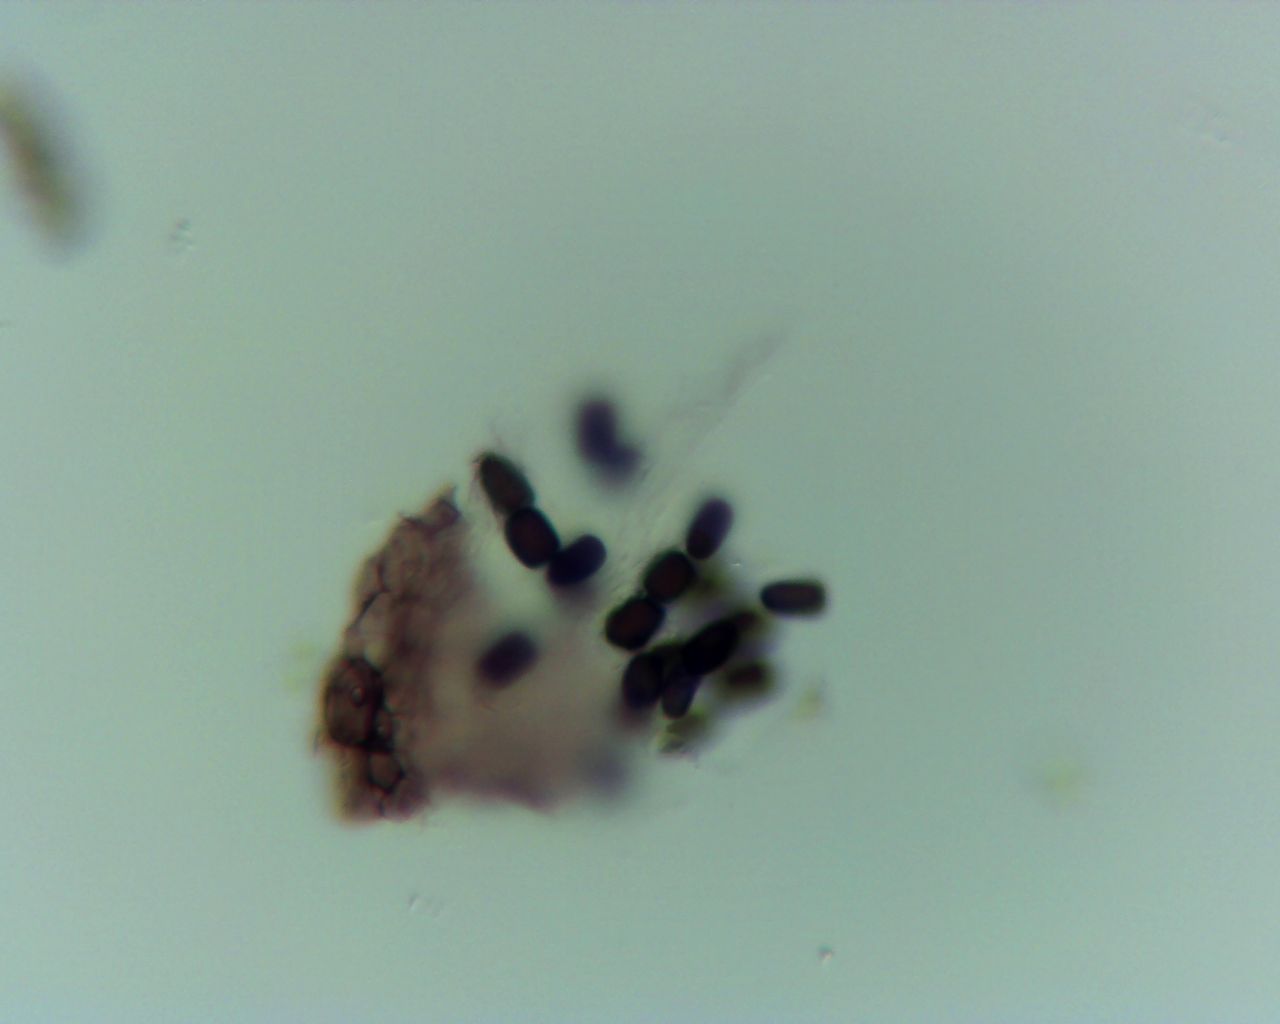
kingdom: Fungi
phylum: Ascomycota
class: Dothideomycetes
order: Pleosporales
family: Sporormiaceae
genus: Sporormiella
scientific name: Sporormiella
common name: knækspore
